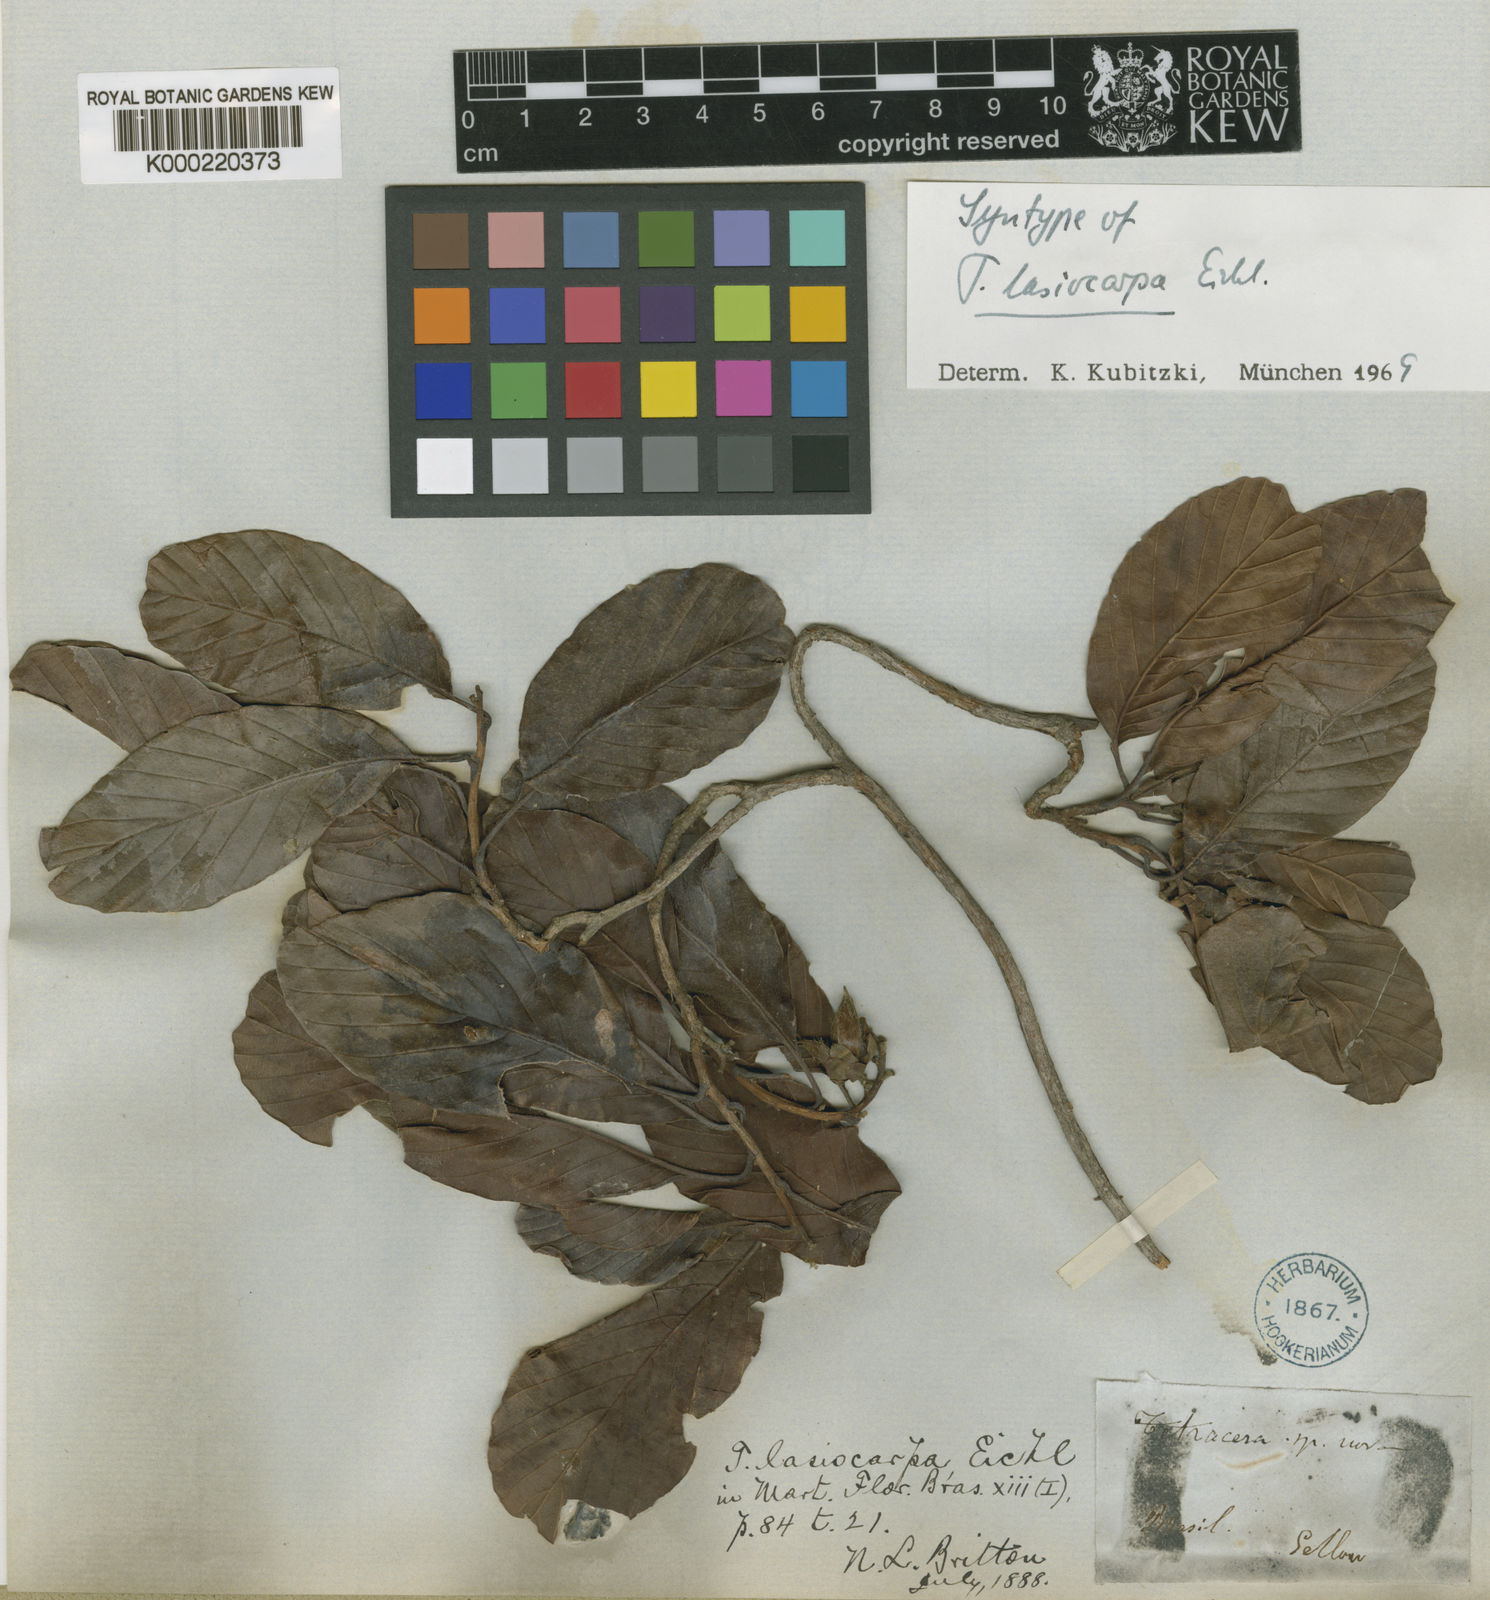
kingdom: Plantae
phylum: Tracheophyta
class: Magnoliopsida
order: Dilleniales
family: Dilleniaceae
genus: Tetracera
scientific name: Tetracera lasiocarpa
